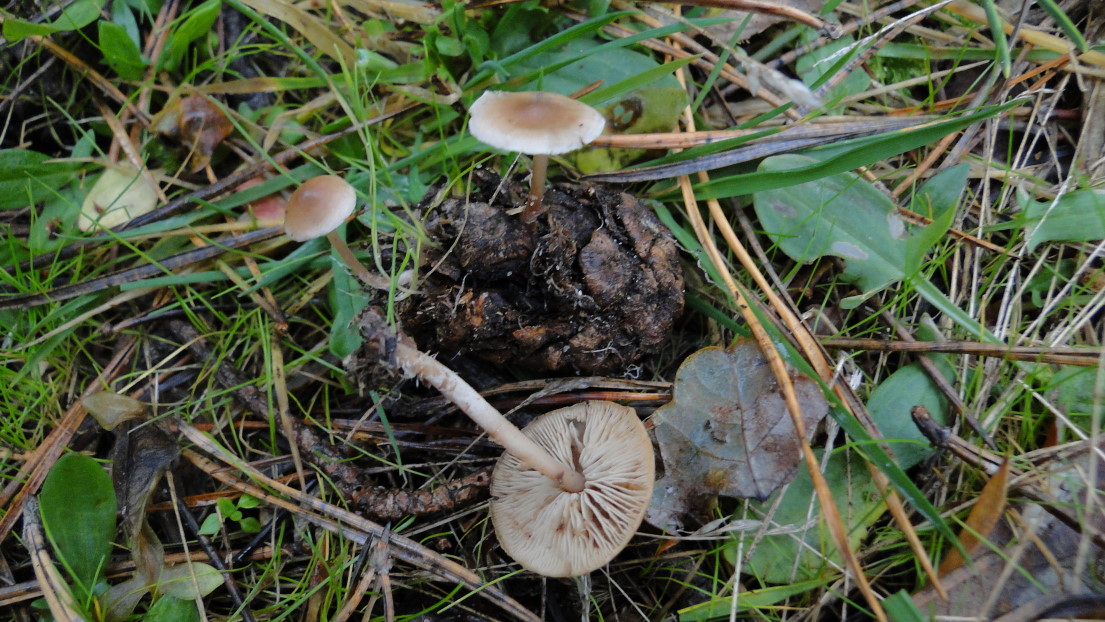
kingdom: Fungi
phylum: Basidiomycota
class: Agaricomycetes
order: Agaricales
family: Marasmiaceae
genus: Baeospora
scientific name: Baeospora myosura
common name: koglebruskhat
